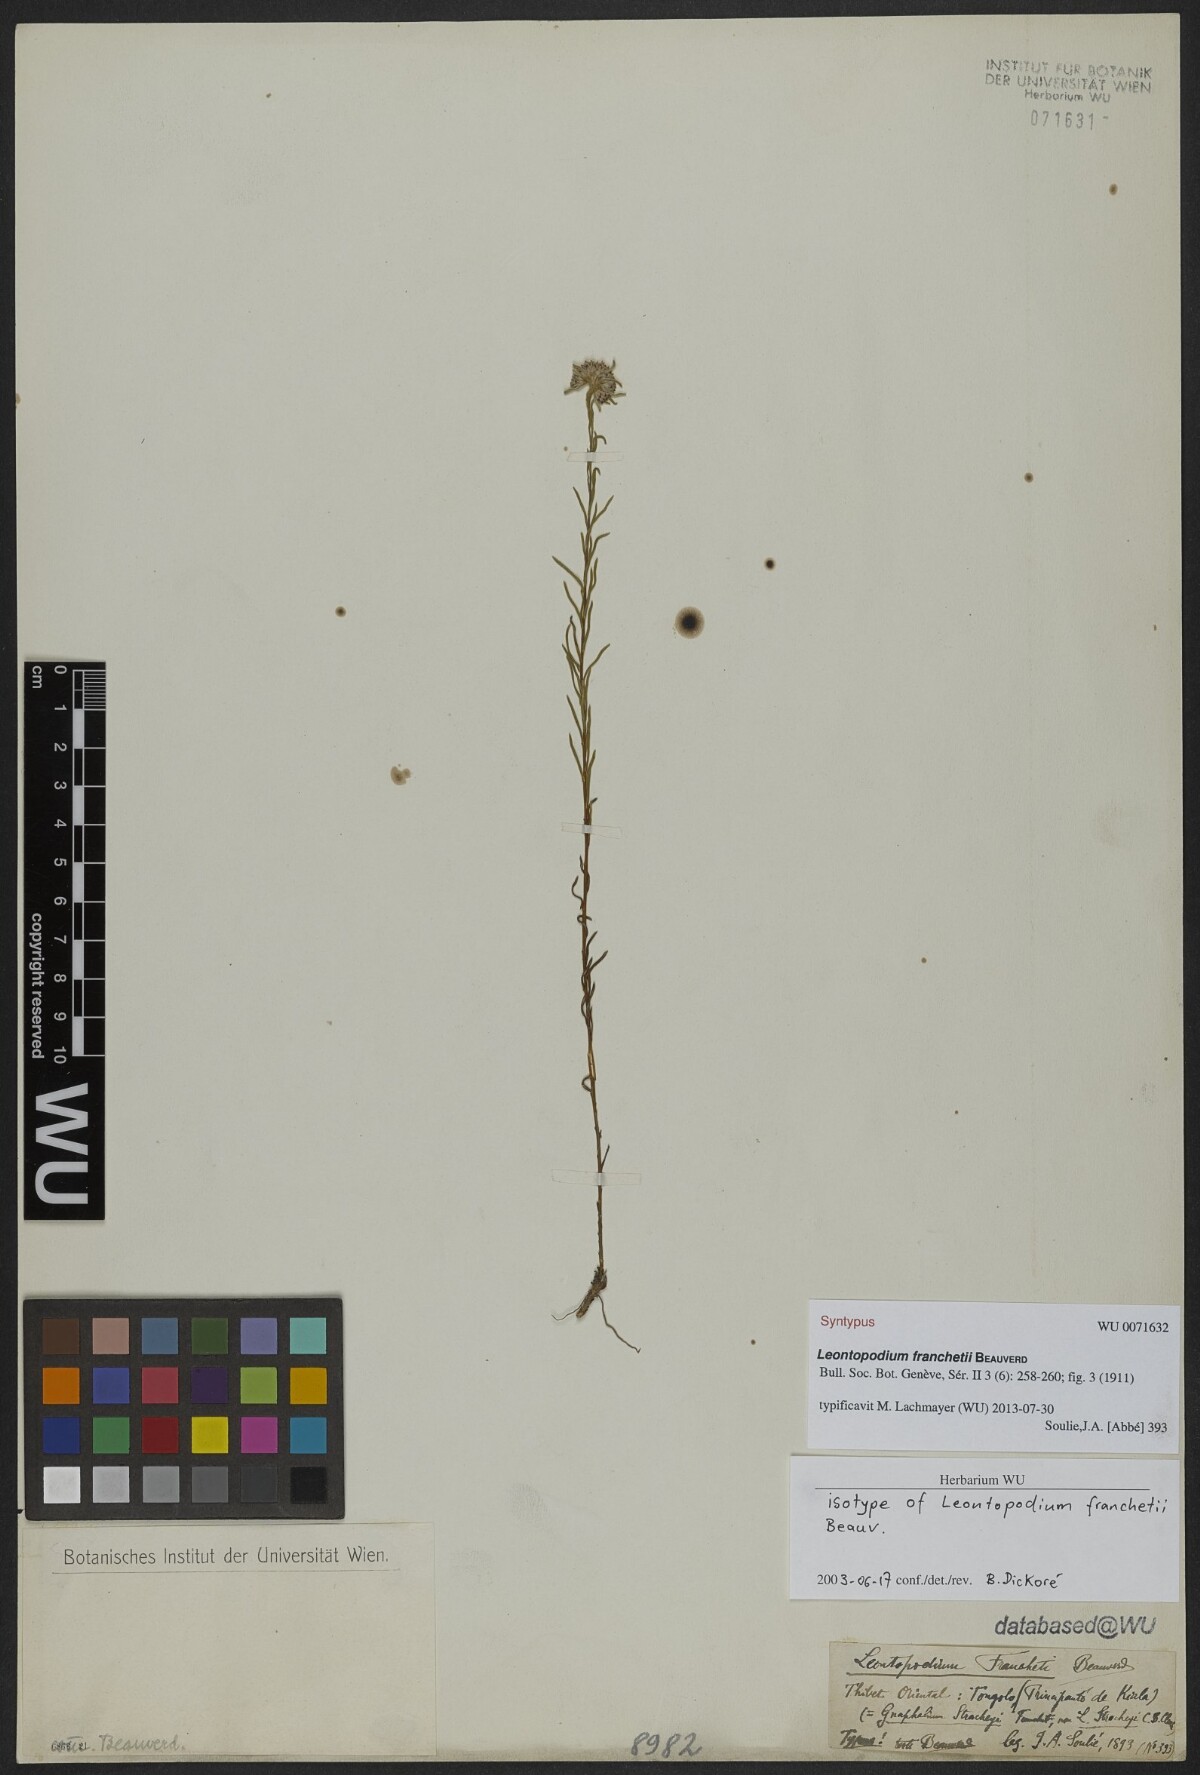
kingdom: Plantae
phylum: Tracheophyta
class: Magnoliopsida
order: Asterales
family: Asteraceae
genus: Leontopodium
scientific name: Leontopodium franchetii
